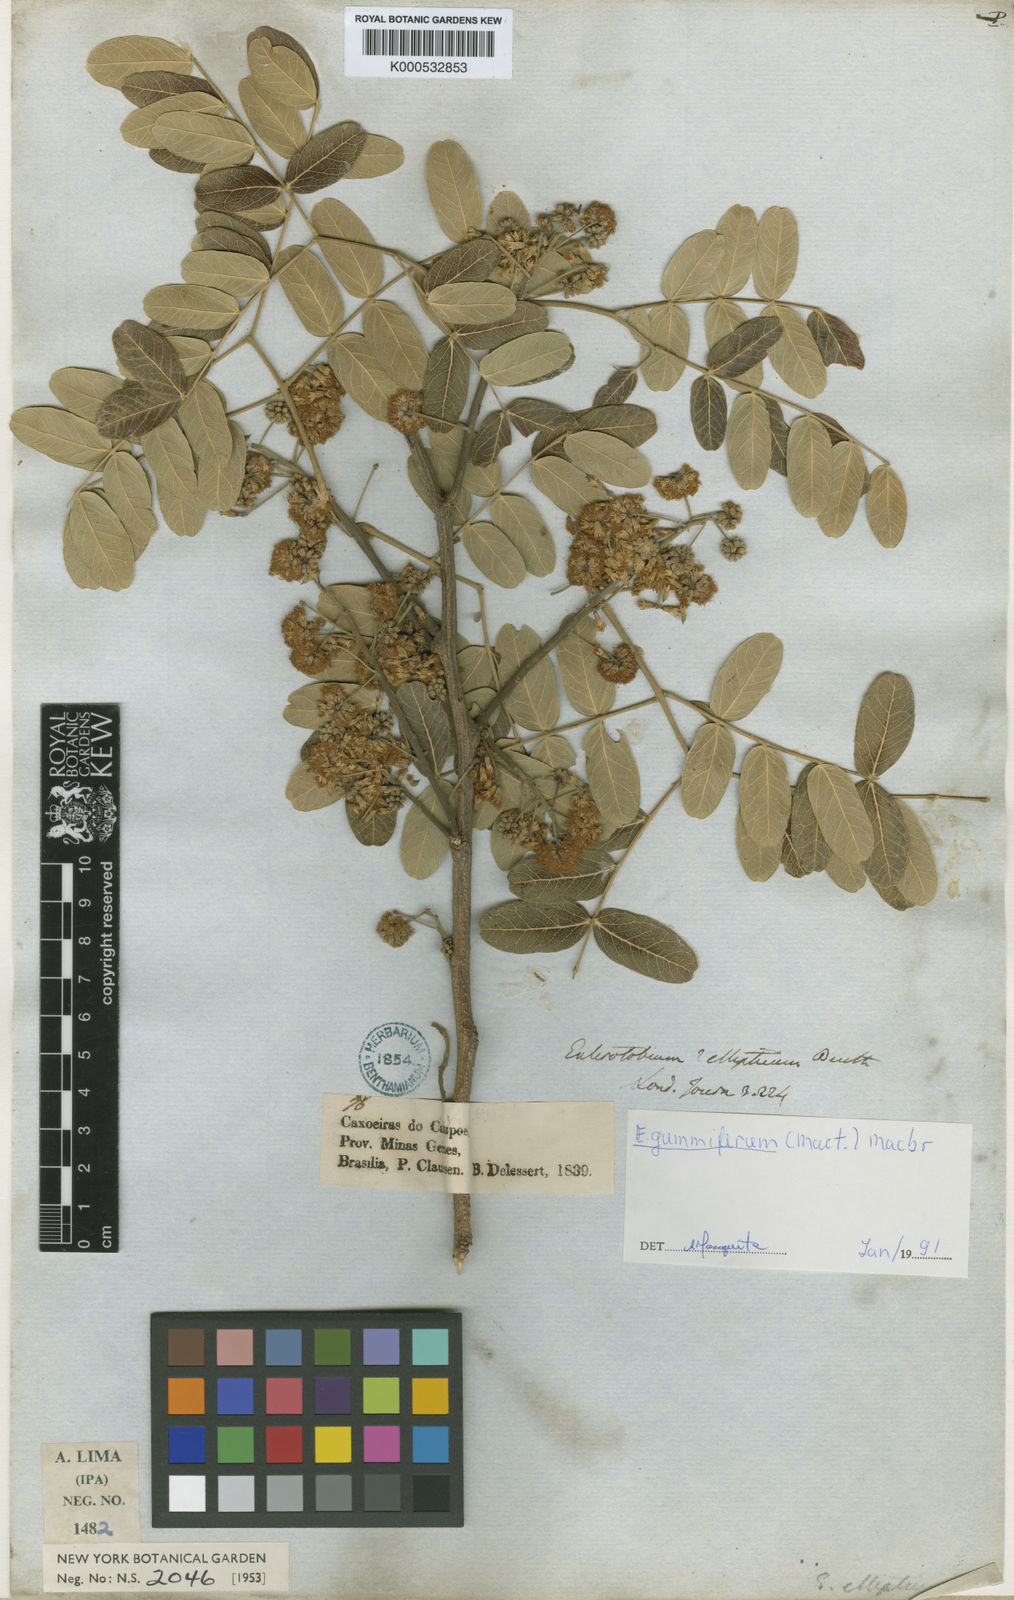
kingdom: Plantae
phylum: Tracheophyta
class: Magnoliopsida
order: Fabales
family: Fabaceae
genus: Enterolobium
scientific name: Enterolobium gummiferum
